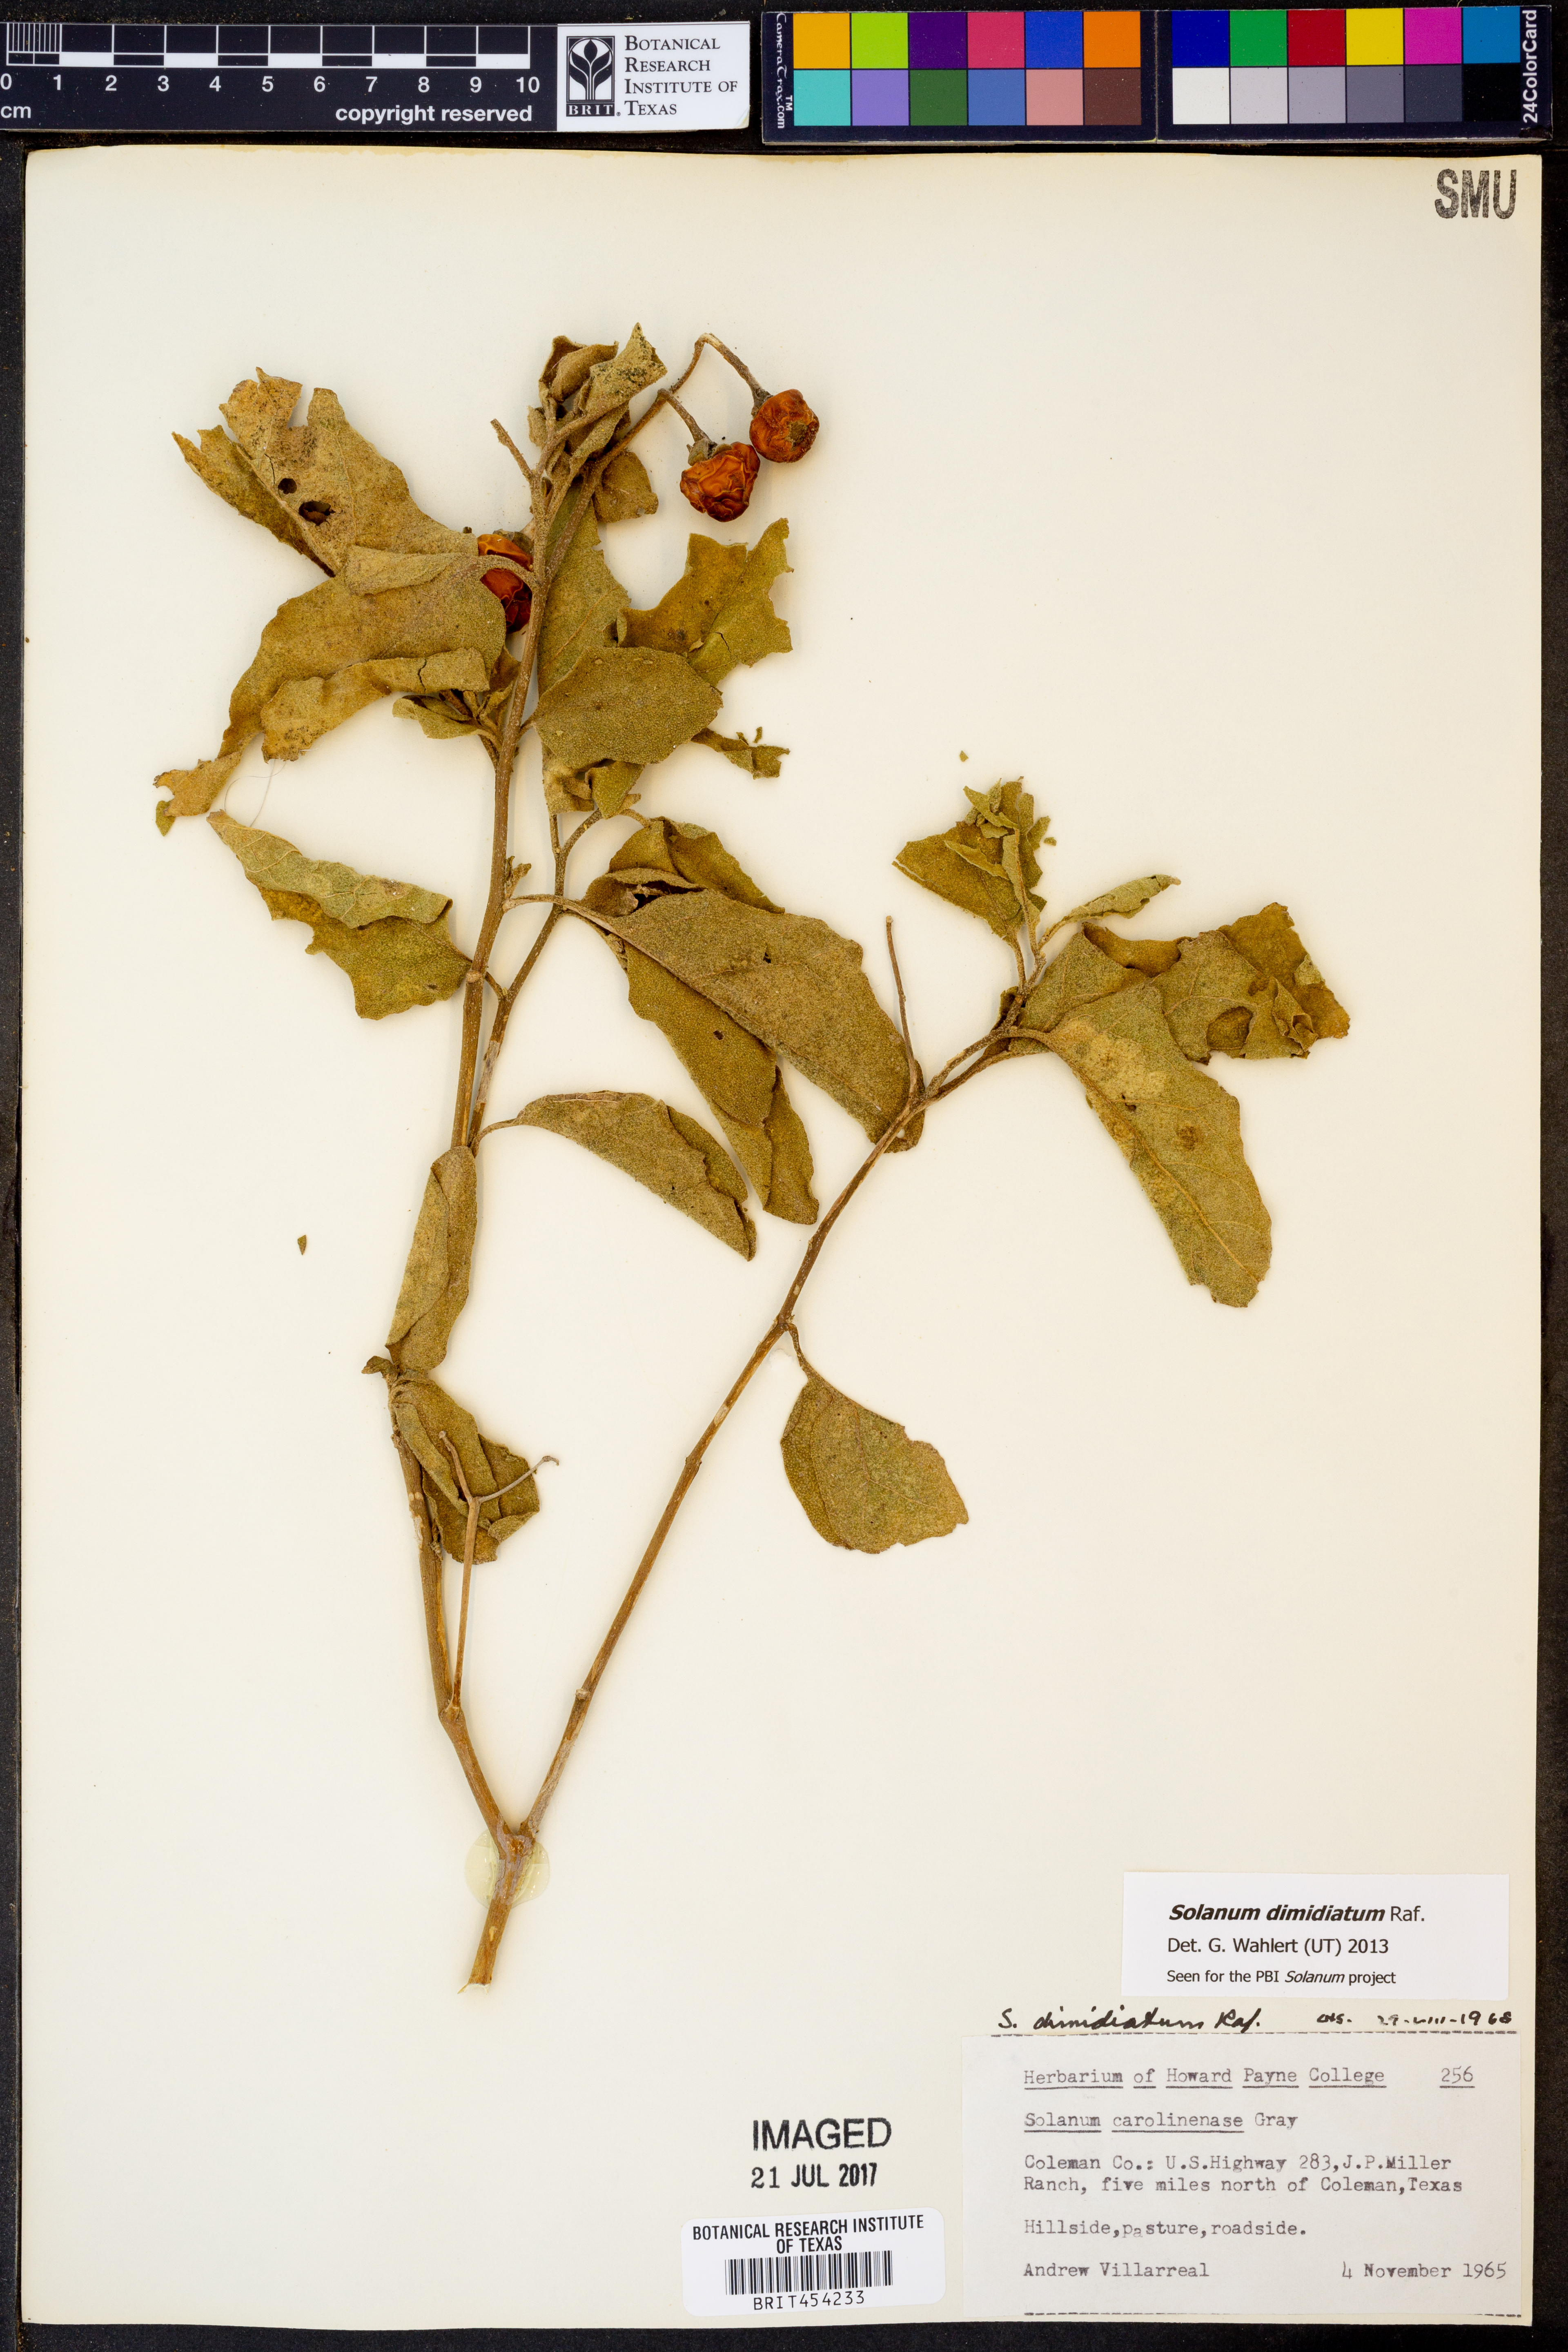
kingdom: Plantae
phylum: Tracheophyta
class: Magnoliopsida
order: Solanales
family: Solanaceae
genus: Solanum
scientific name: Solanum dimidiatum
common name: Carolina horse-nettle
